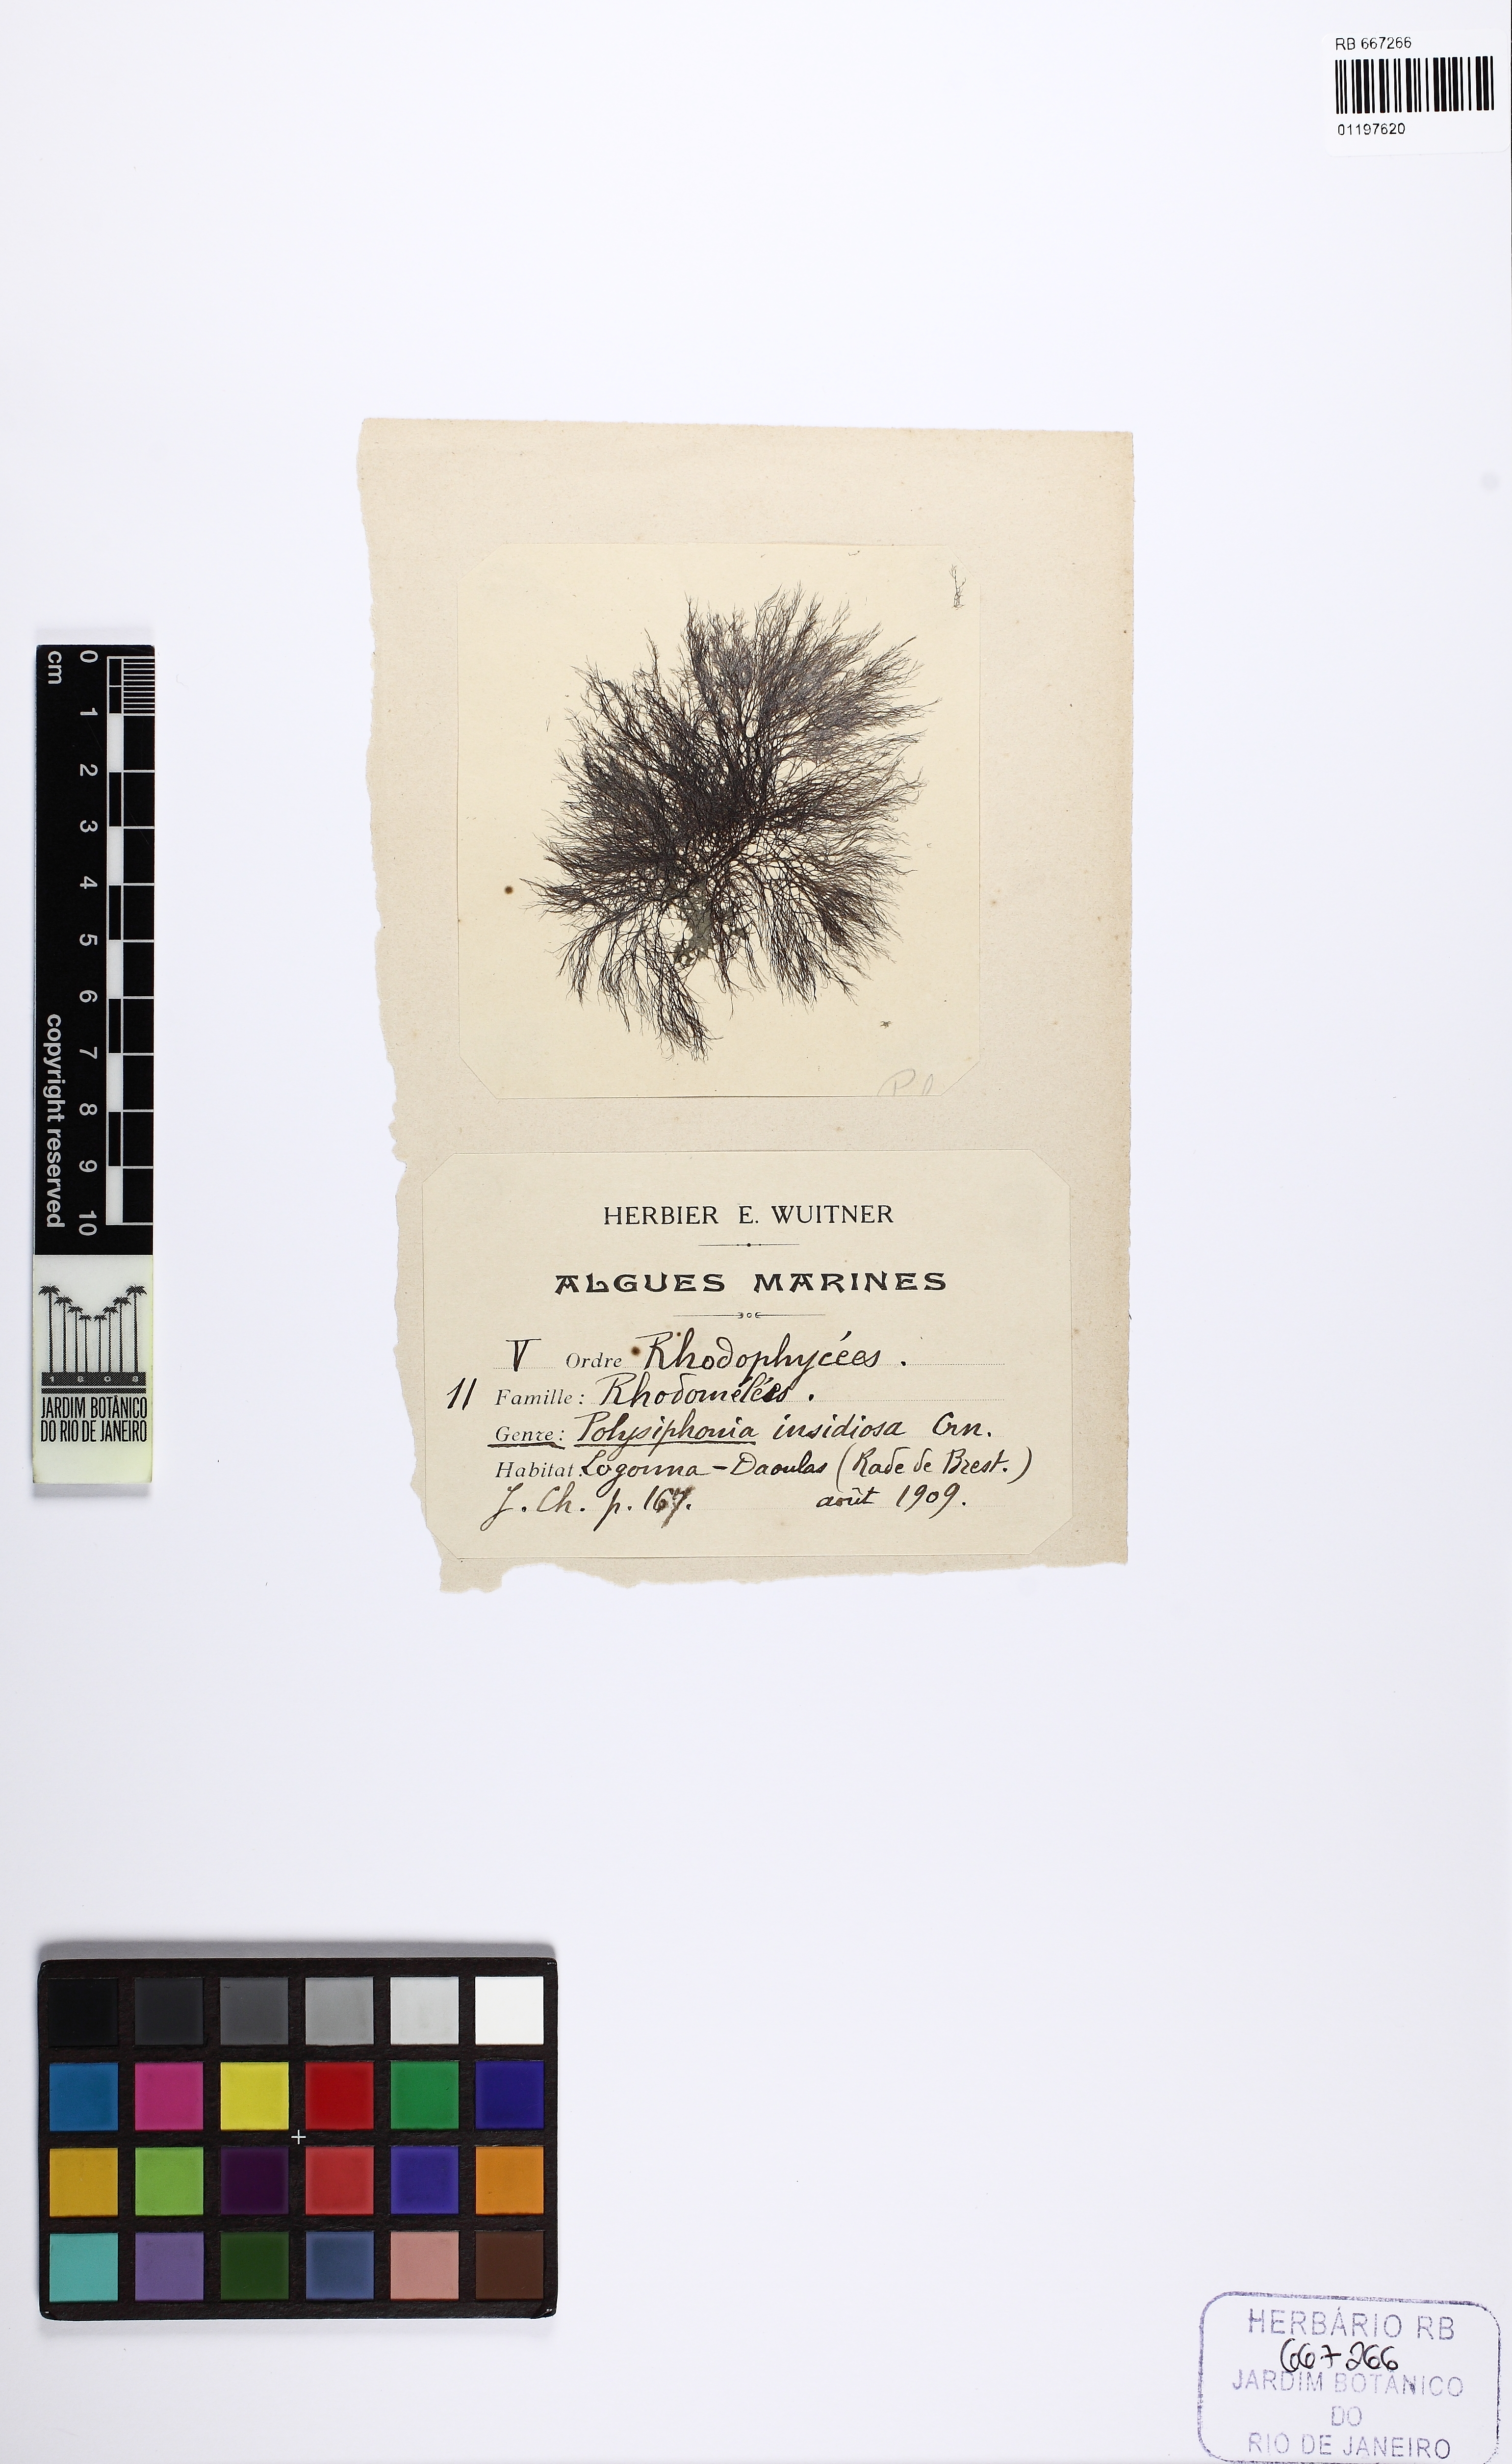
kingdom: Plantae
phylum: Rhodophyta
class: Florideophyceae
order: Ceramiales
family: Rhodomelaceae
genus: Melanothamnus
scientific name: Melanothamnus spec
